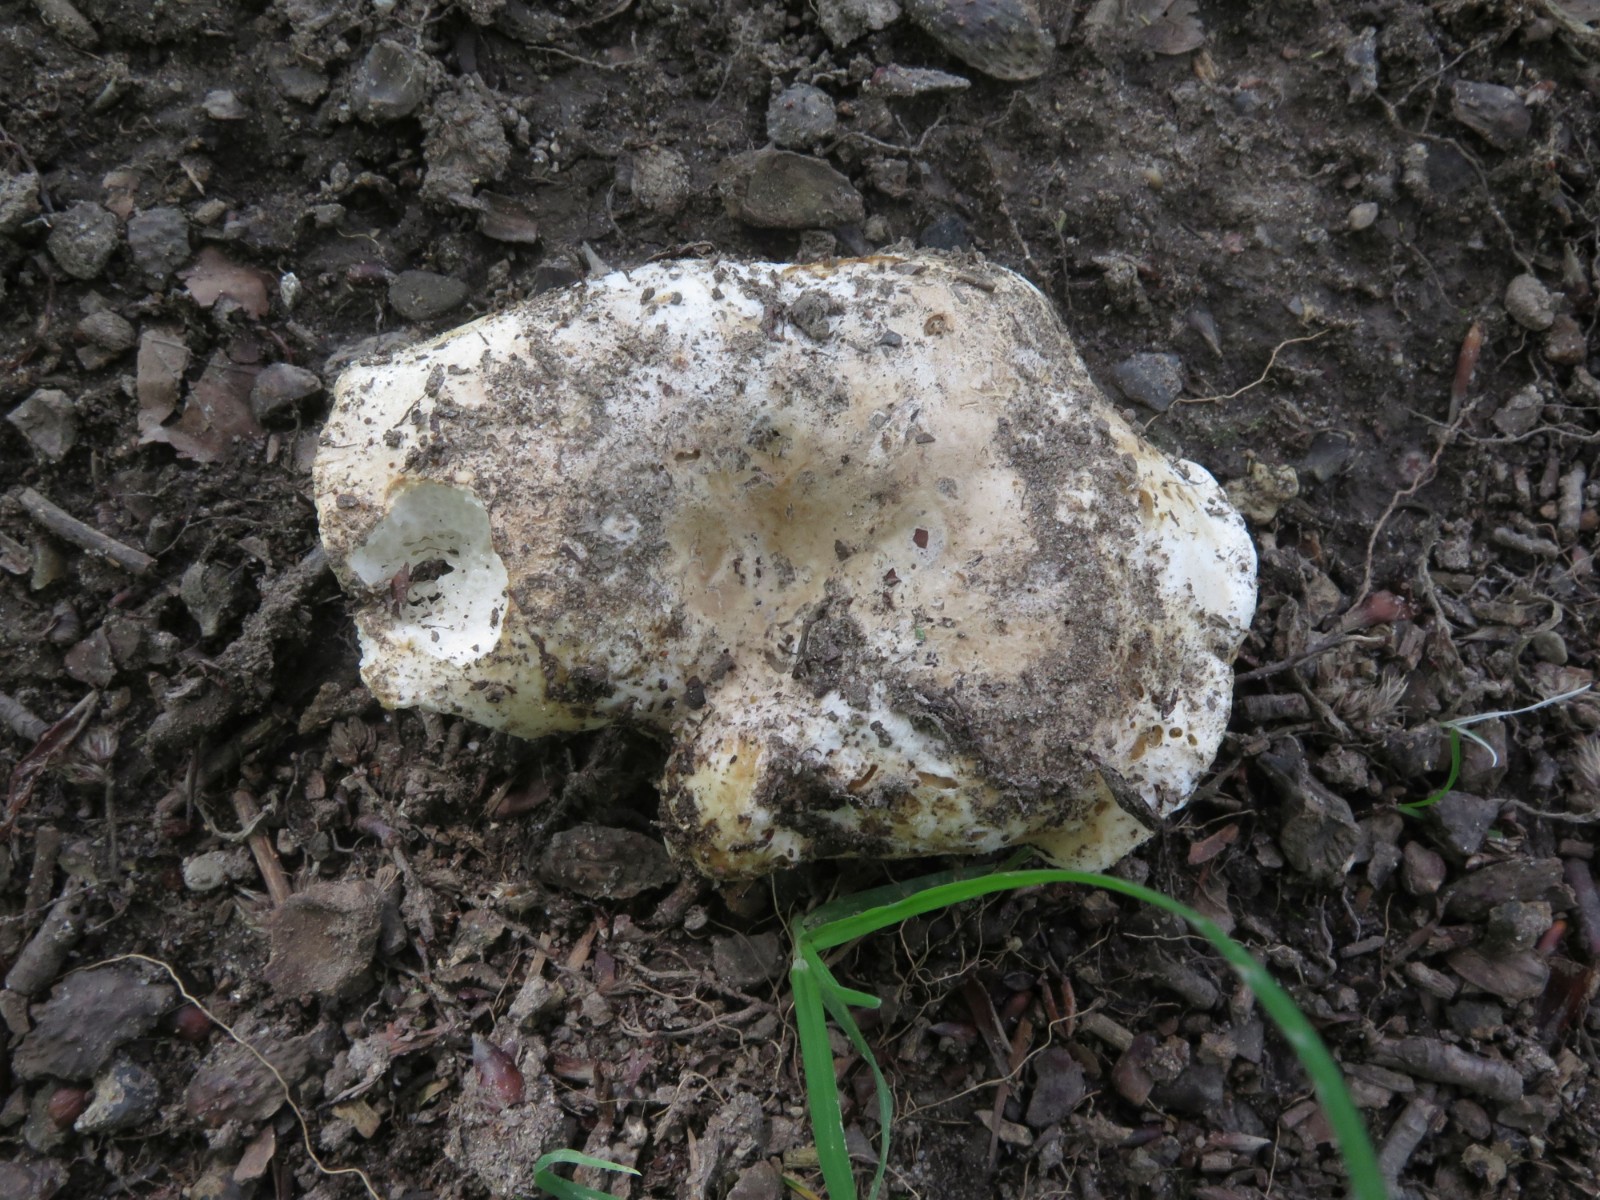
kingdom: Fungi
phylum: Basidiomycota
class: Agaricomycetes
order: Russulales
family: Russulaceae
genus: Russula
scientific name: Russula
